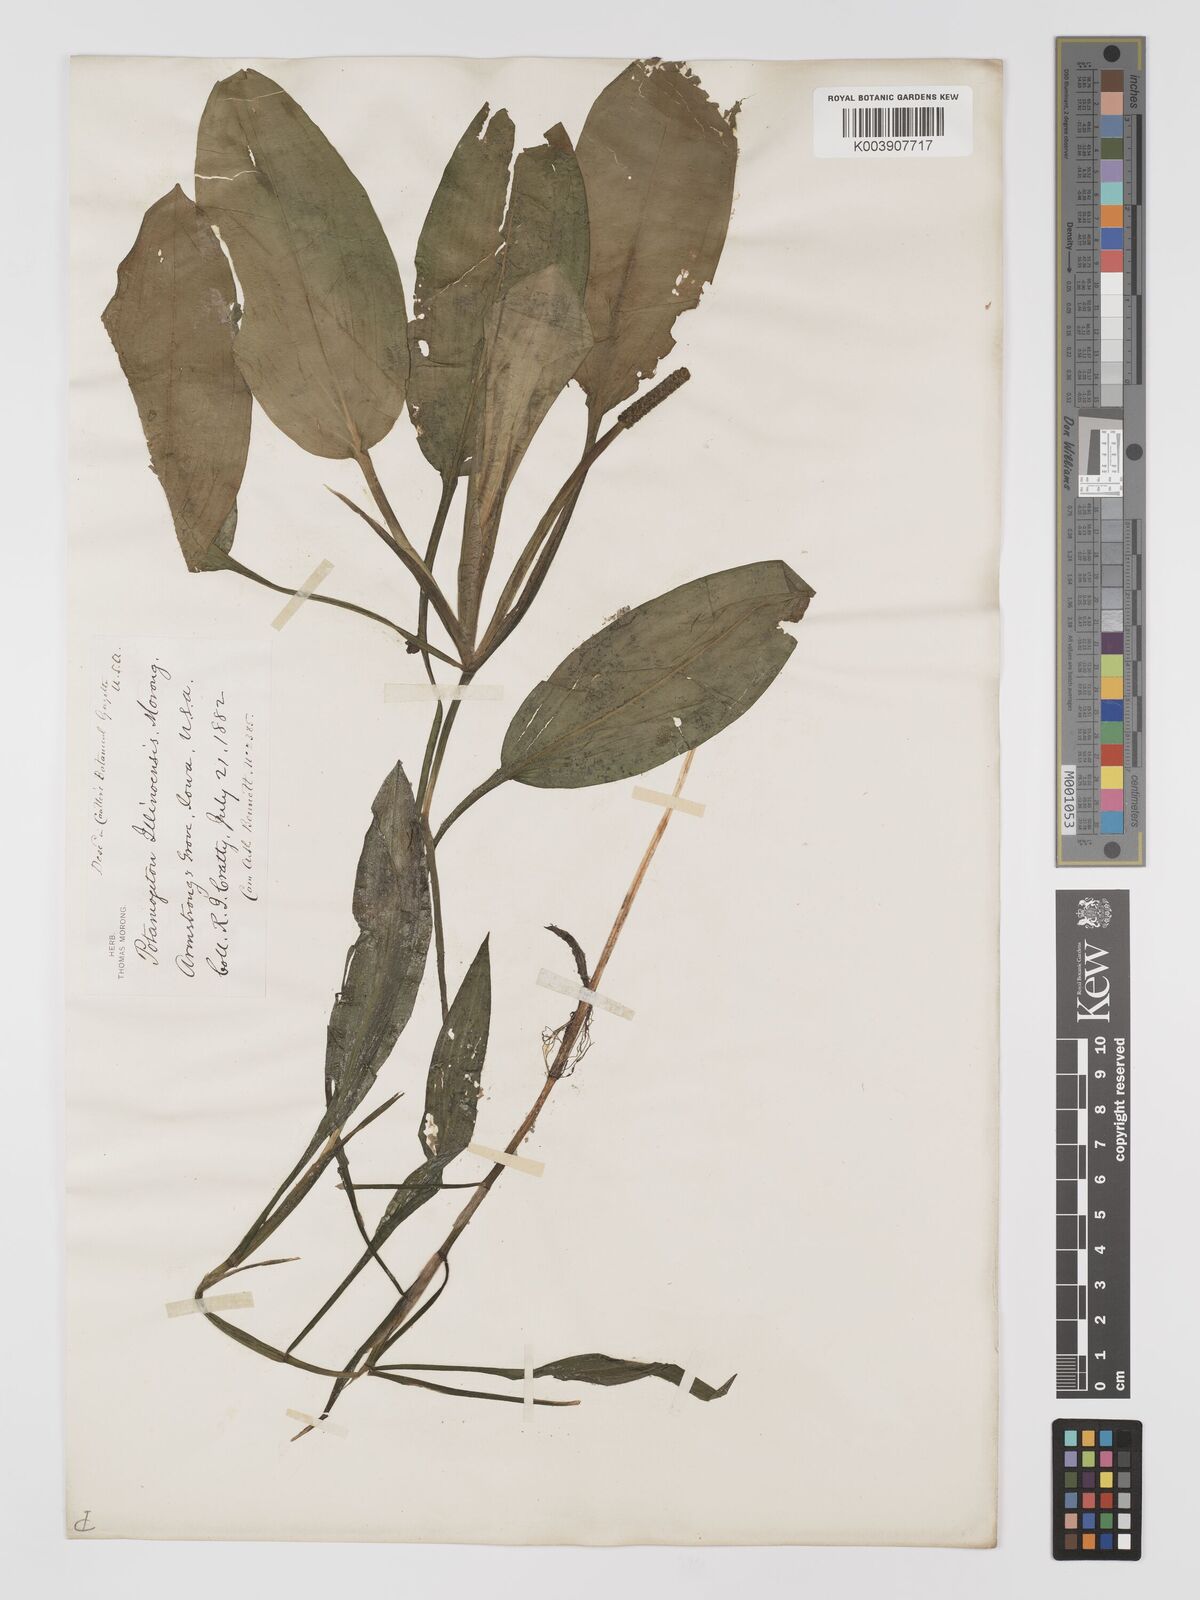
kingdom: Plantae
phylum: Tracheophyta
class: Liliopsida
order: Alismatales
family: Potamogetonaceae
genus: Potamogeton
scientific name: Potamogeton illinoensis
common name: Illinois pondweed
